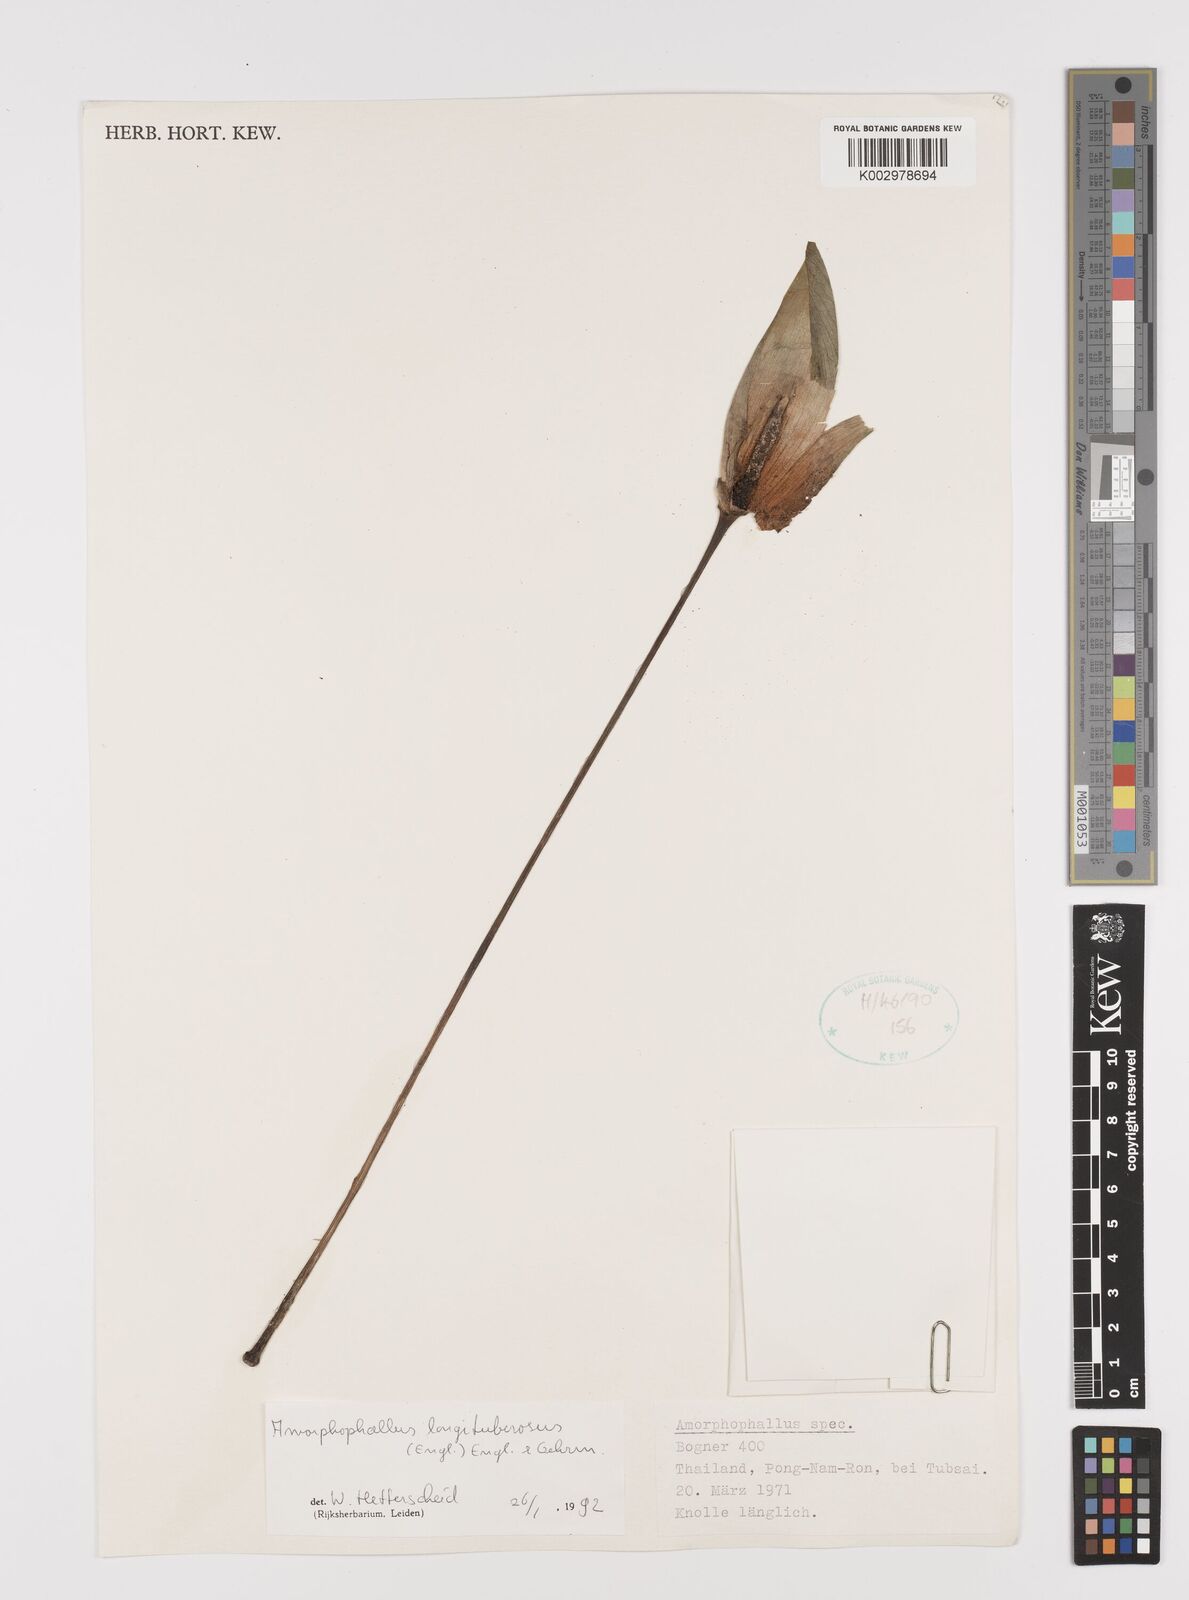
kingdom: Plantae
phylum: Tracheophyta
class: Liliopsida
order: Alismatales
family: Araceae
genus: Amorphophallus
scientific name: Amorphophallus longituberosus
